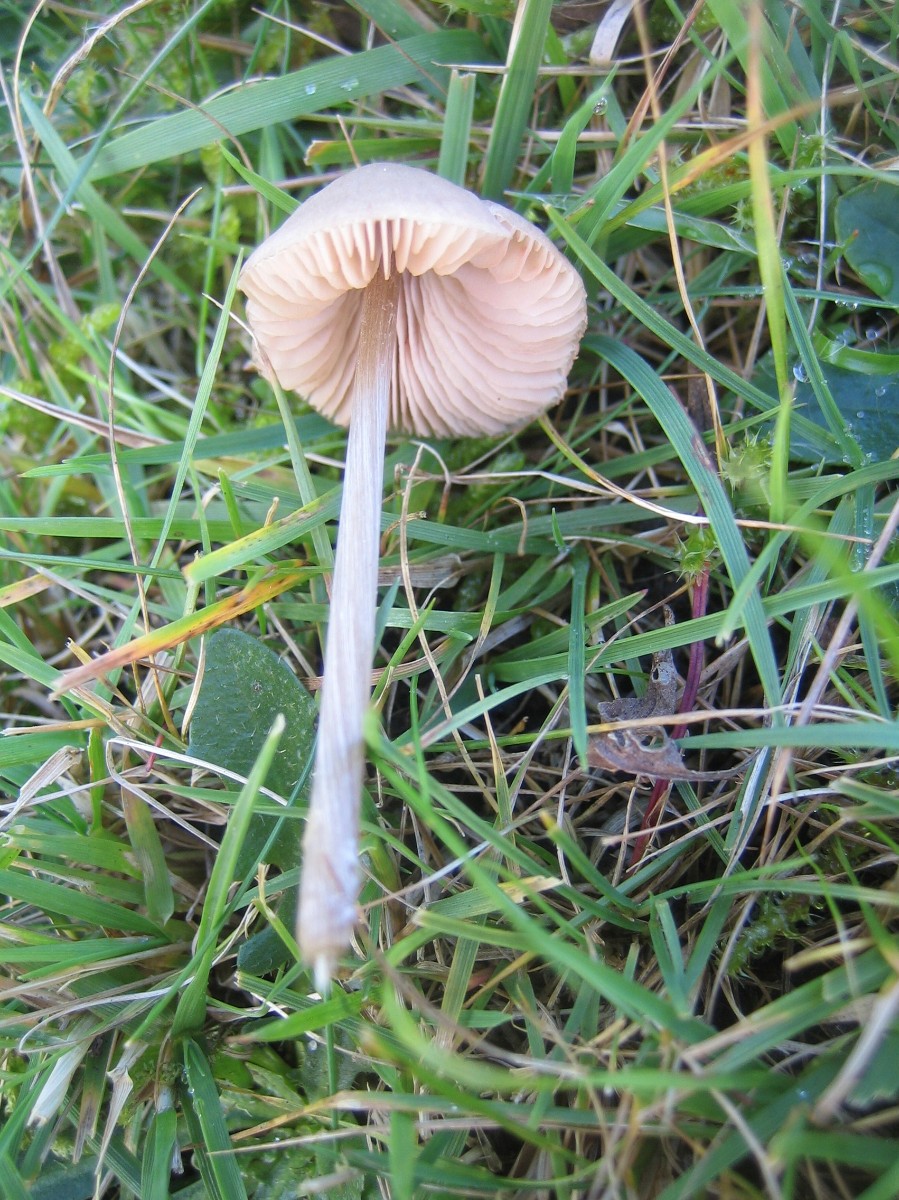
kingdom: Fungi
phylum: Basidiomycota
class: Agaricomycetes
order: Agaricales
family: Entolomataceae
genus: Entoloma
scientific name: Entoloma conferendum
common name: stjernesporet rødblad
